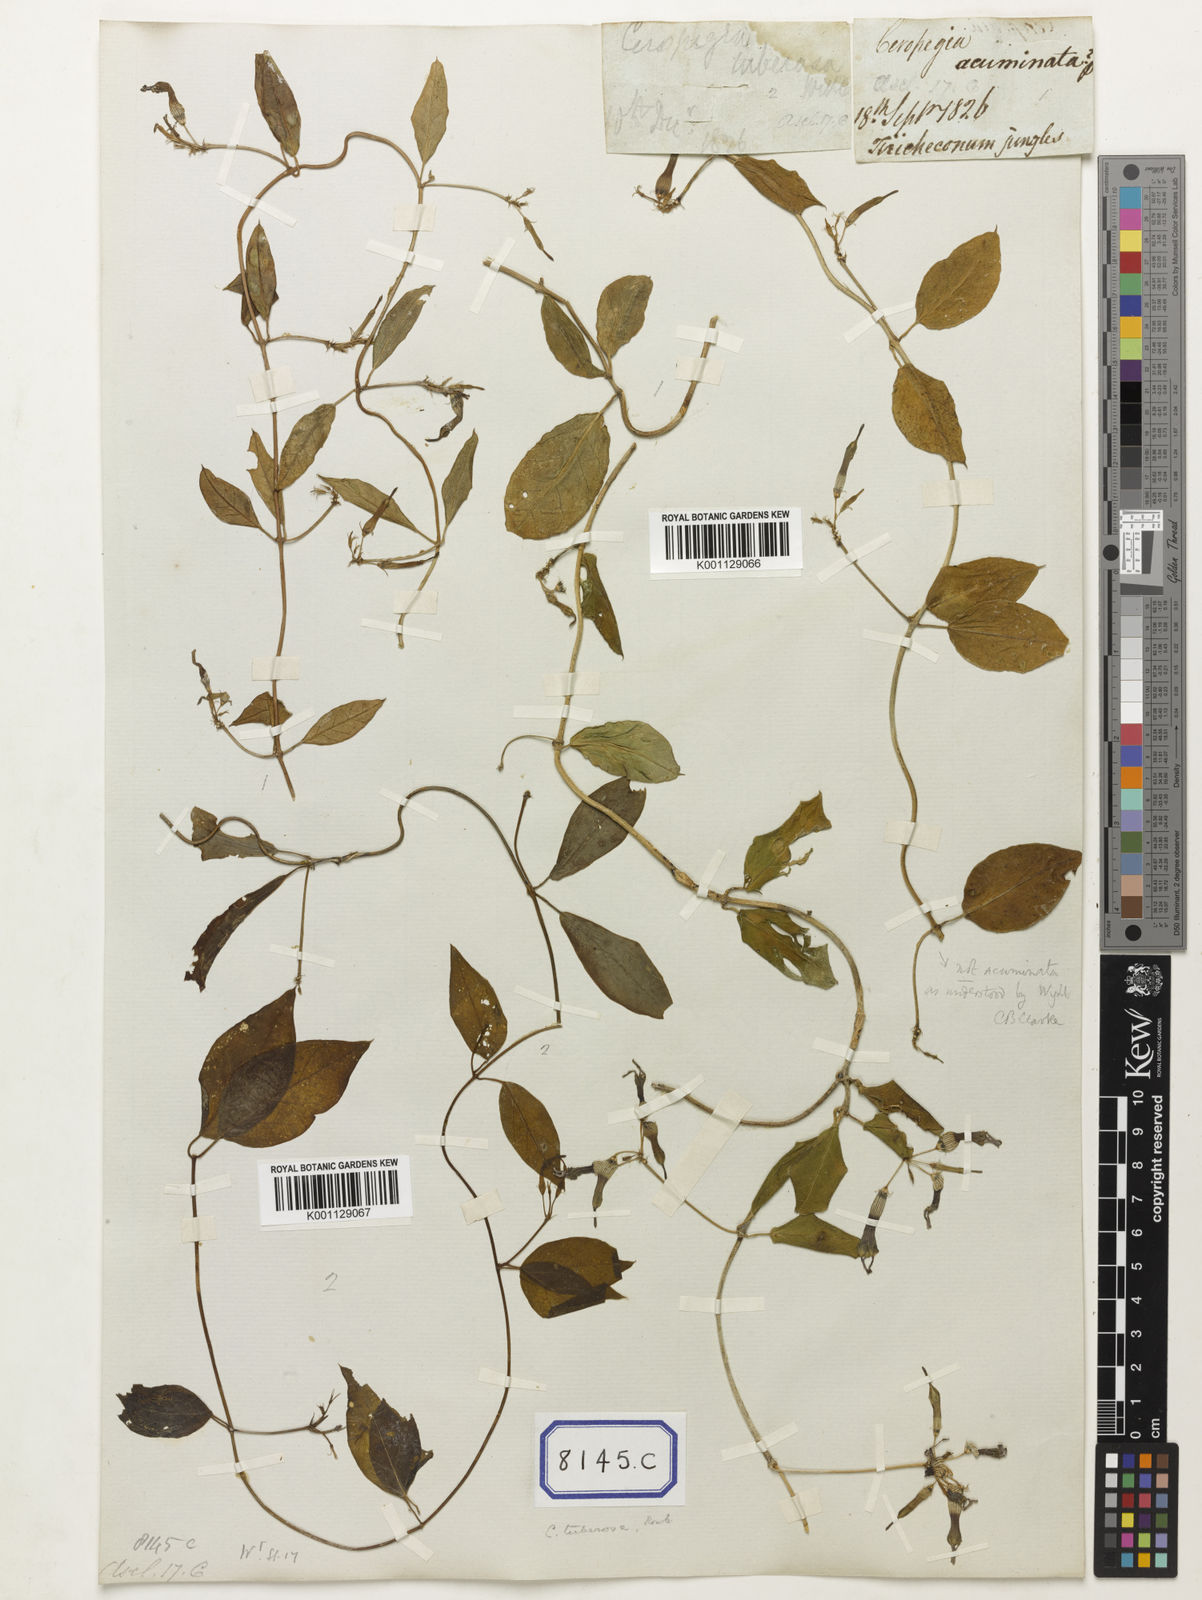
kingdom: Plantae
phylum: Tracheophyta
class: Magnoliopsida
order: Gentianales
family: Apocynaceae
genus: Ceropegia
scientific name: Ceropegia
